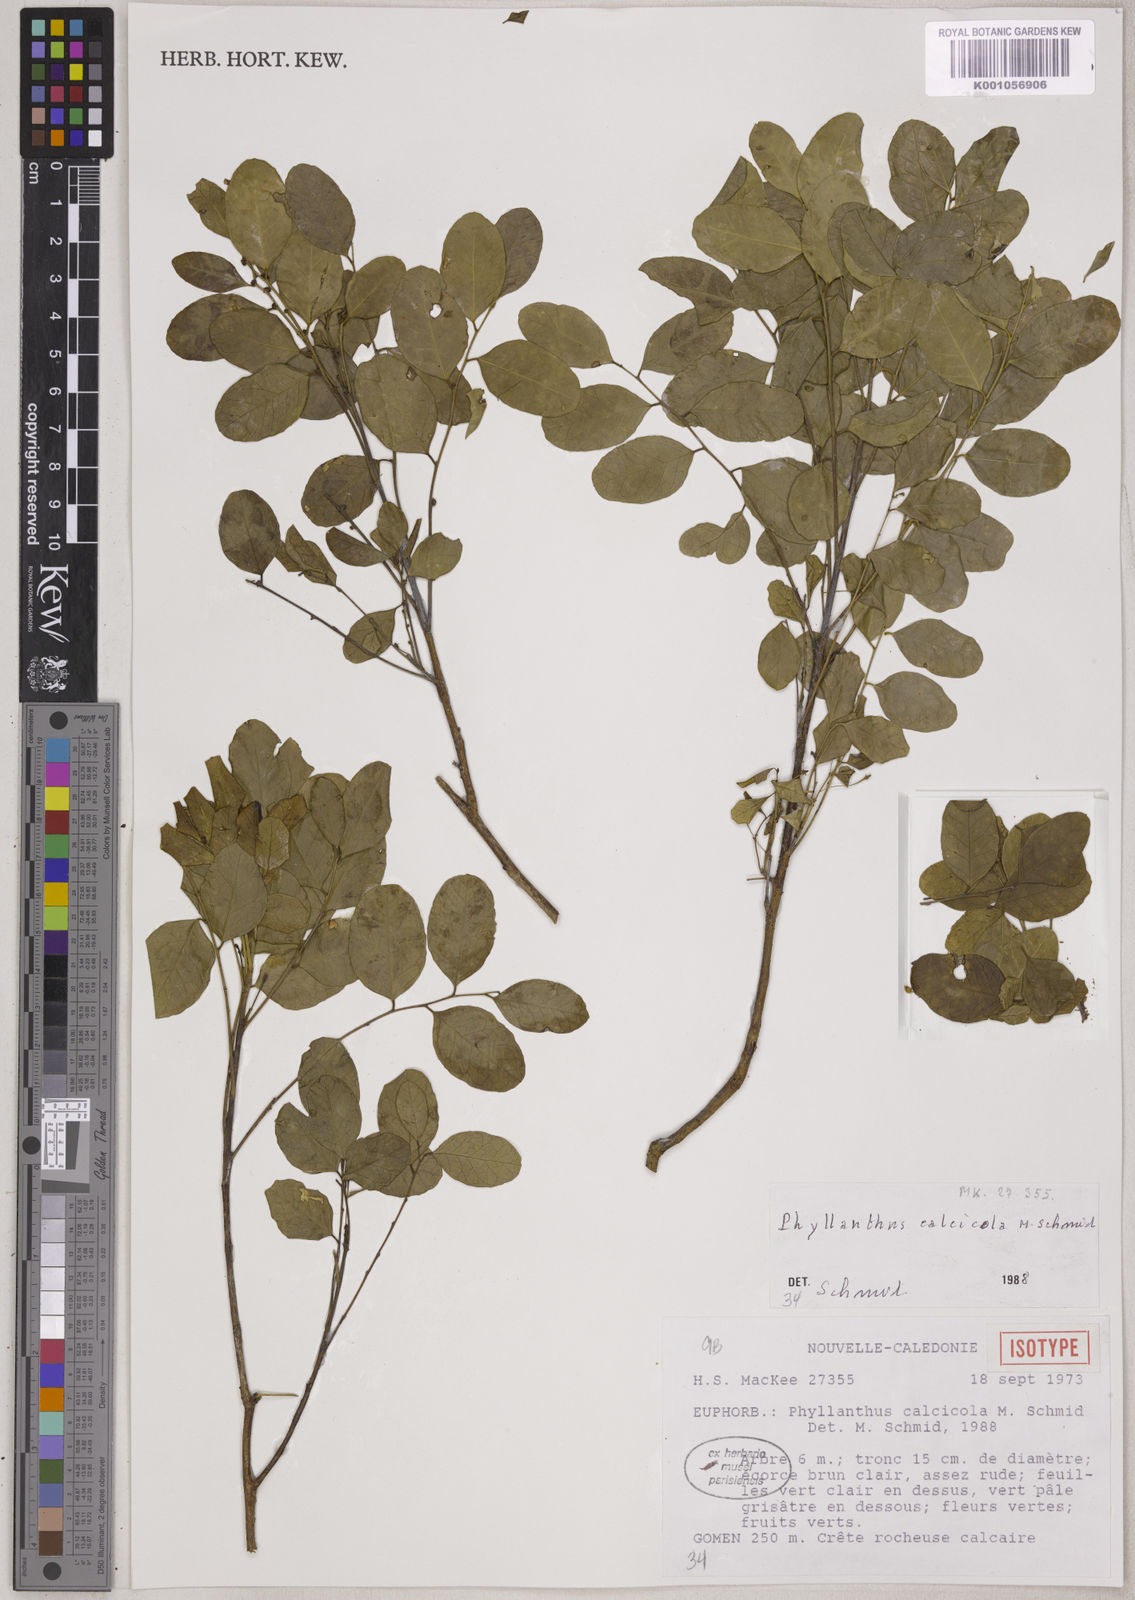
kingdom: Plantae
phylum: Tracheophyta
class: Magnoliopsida
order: Malpighiales
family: Phyllanthaceae
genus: Phyllanthus
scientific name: Phyllanthus calcicola
